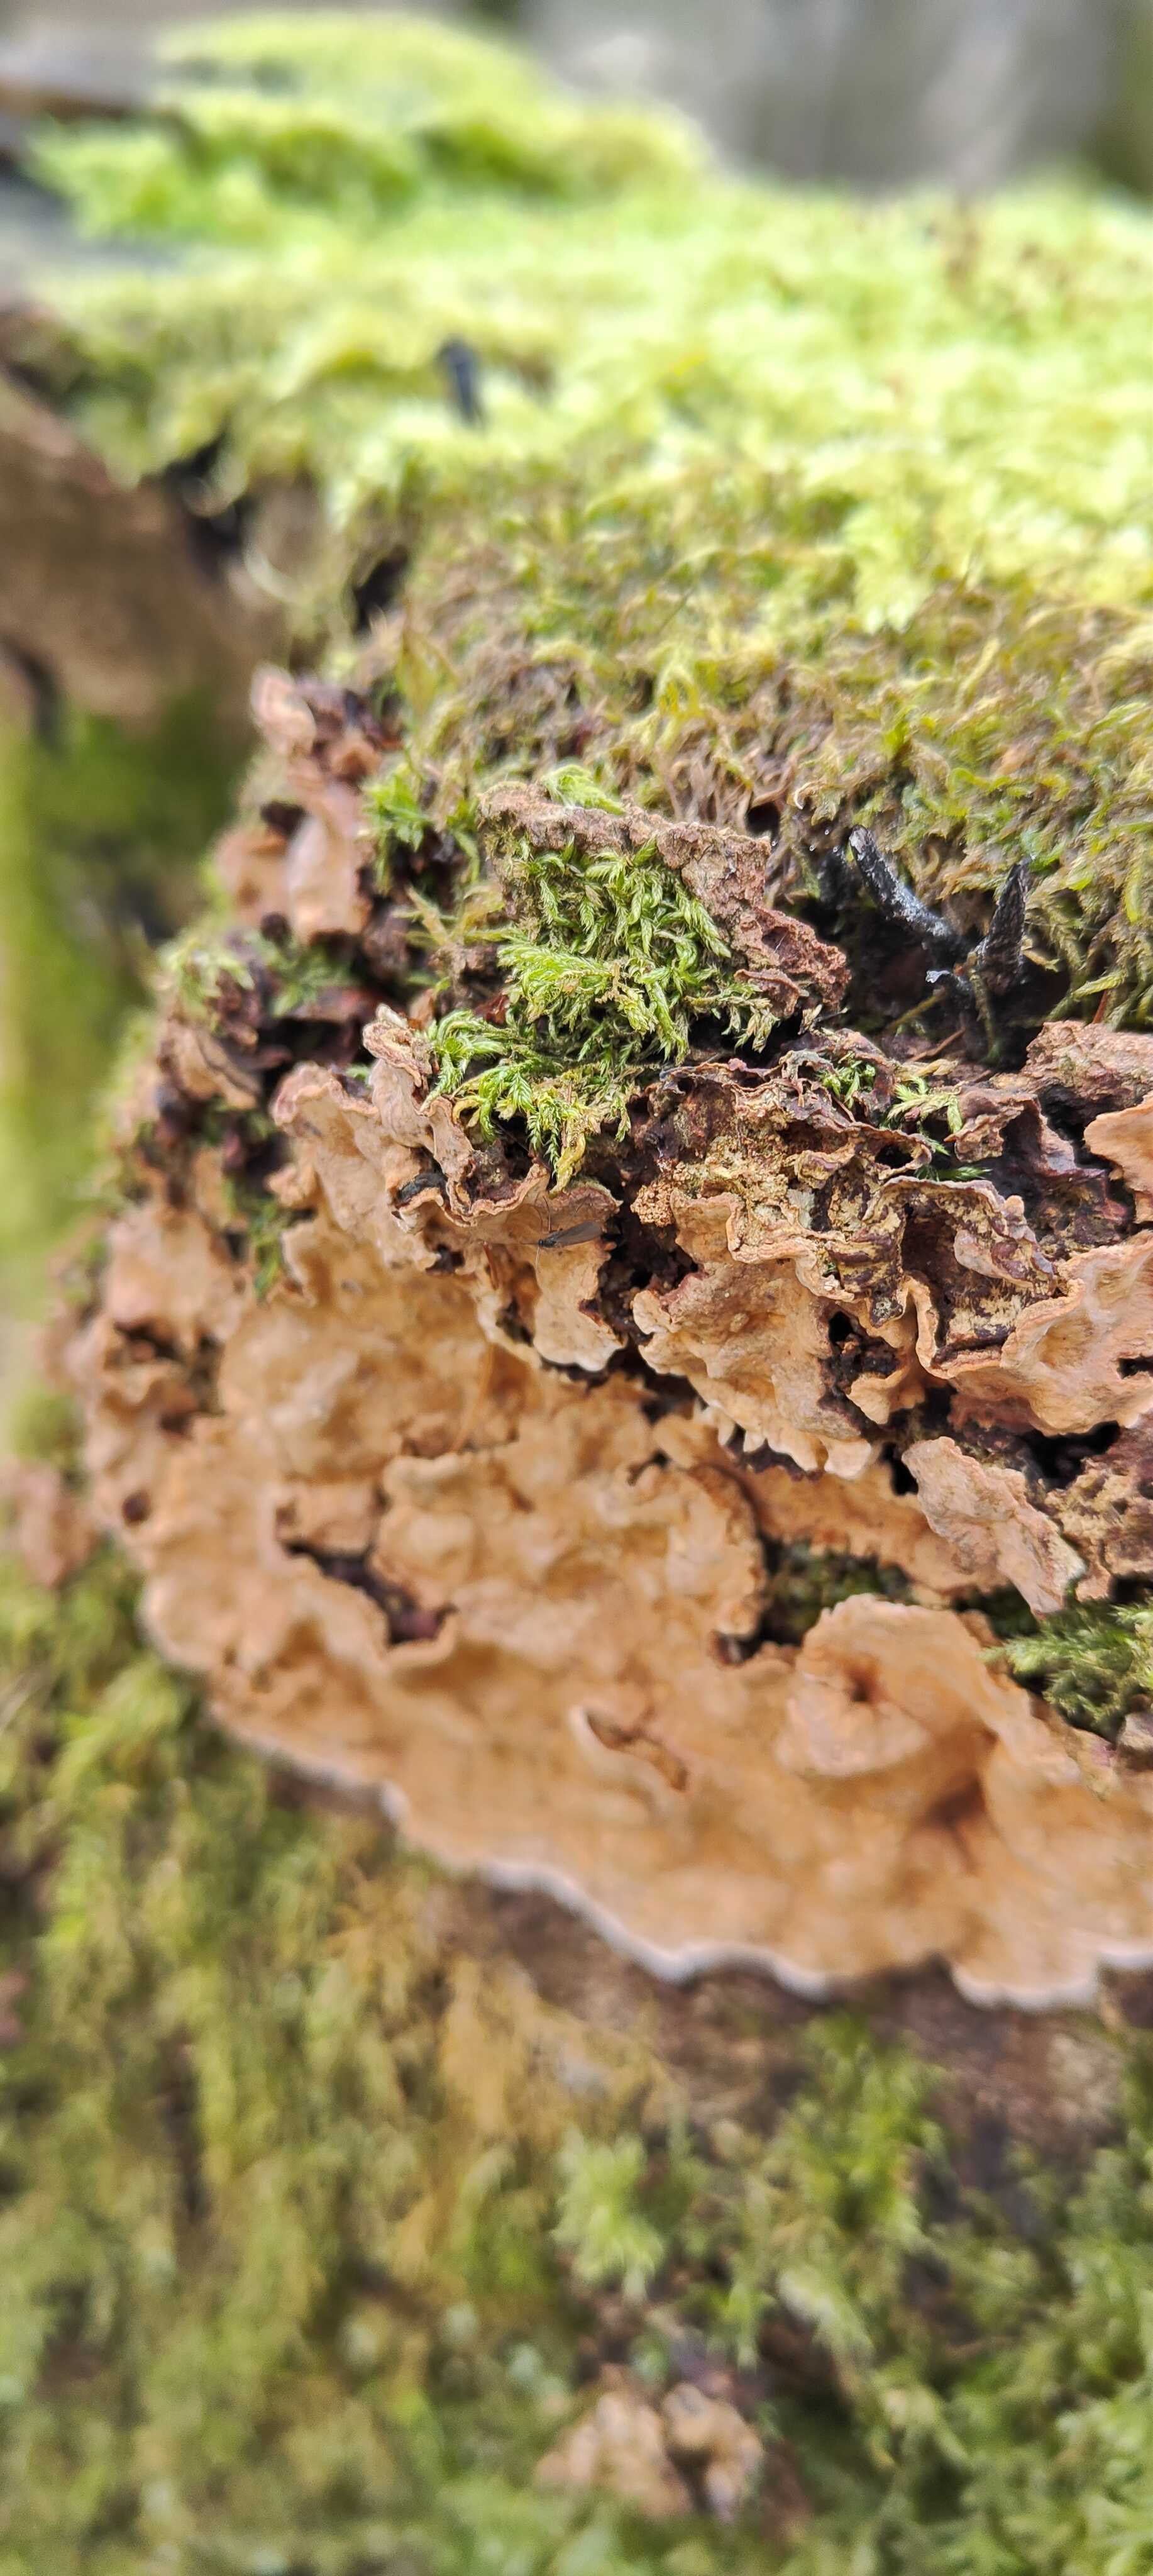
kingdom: Fungi
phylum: Basidiomycota
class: Agaricomycetes
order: Russulales
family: Stereaceae
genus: Stereum
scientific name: Stereum rugosum
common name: rynket lædersvamp
